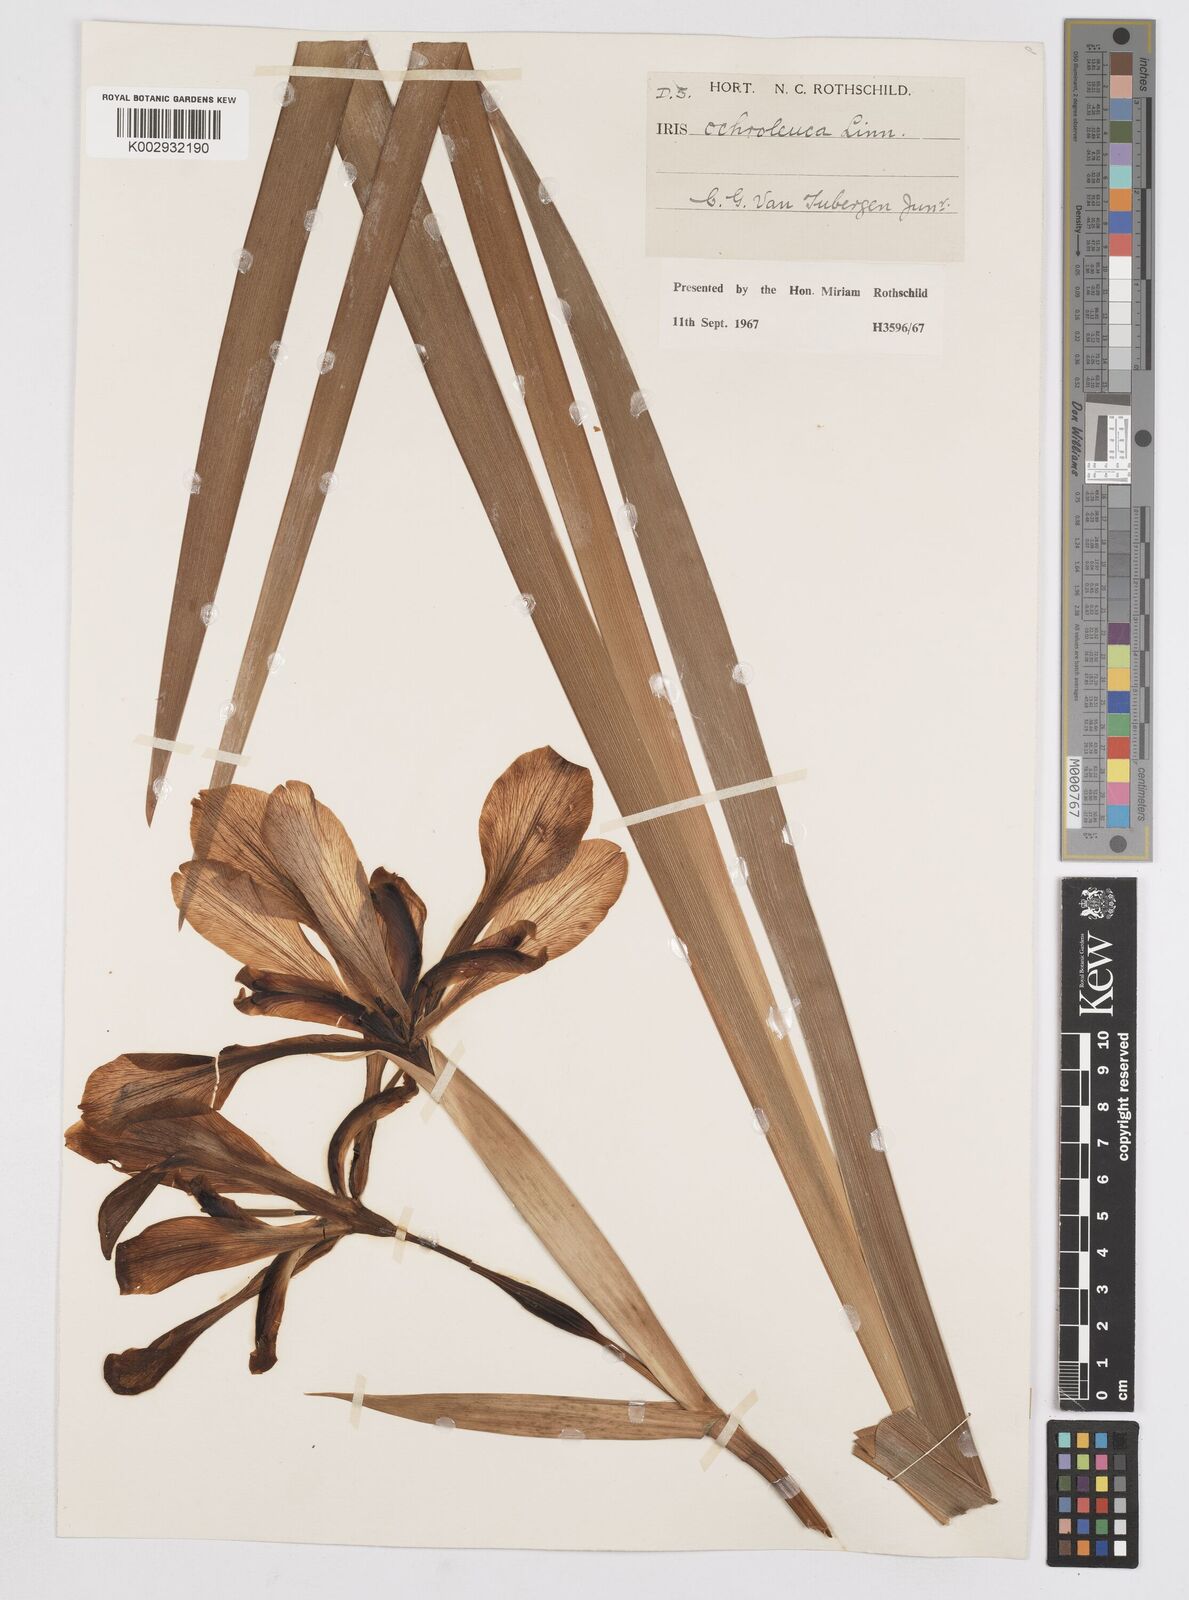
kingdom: Plantae
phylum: Tracheophyta
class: Liliopsida
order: Asparagales
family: Iridaceae
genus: Iris
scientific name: Iris orientalis
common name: Turkish iris
